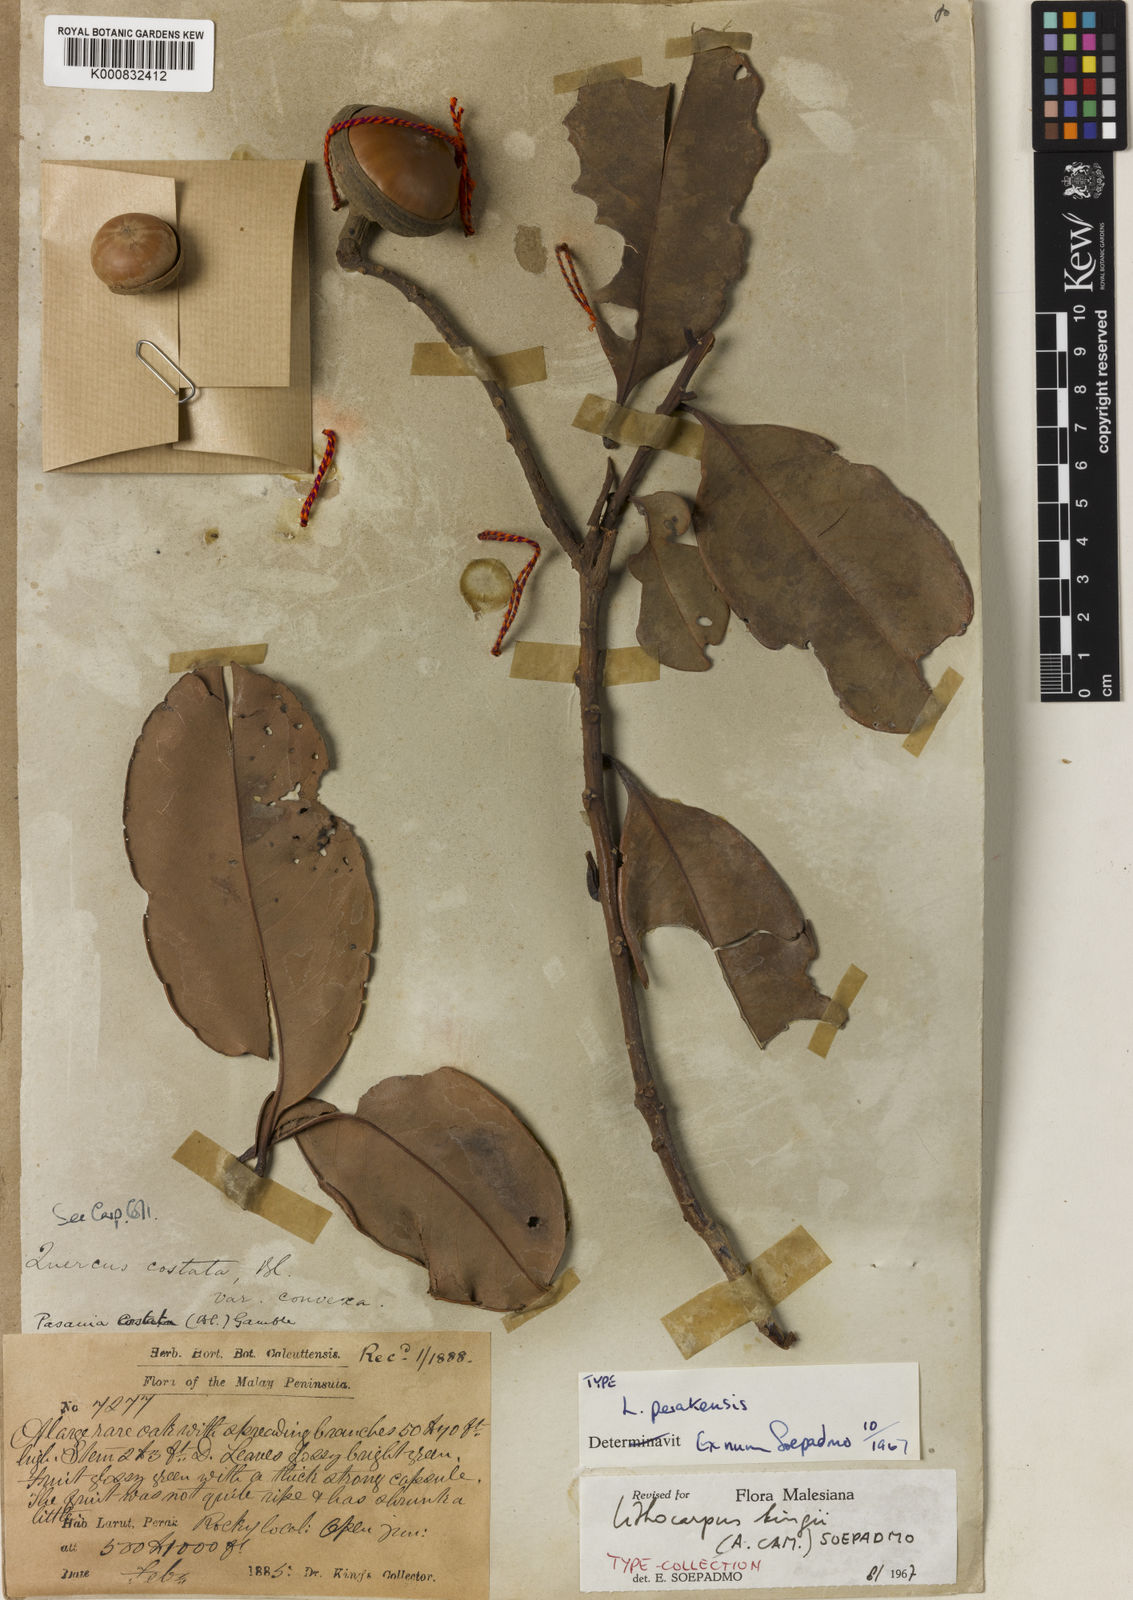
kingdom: Plantae
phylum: Tracheophyta
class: Magnoliopsida
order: Fagales
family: Fagaceae
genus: Lithocarpus
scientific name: Lithocarpus perakensis
